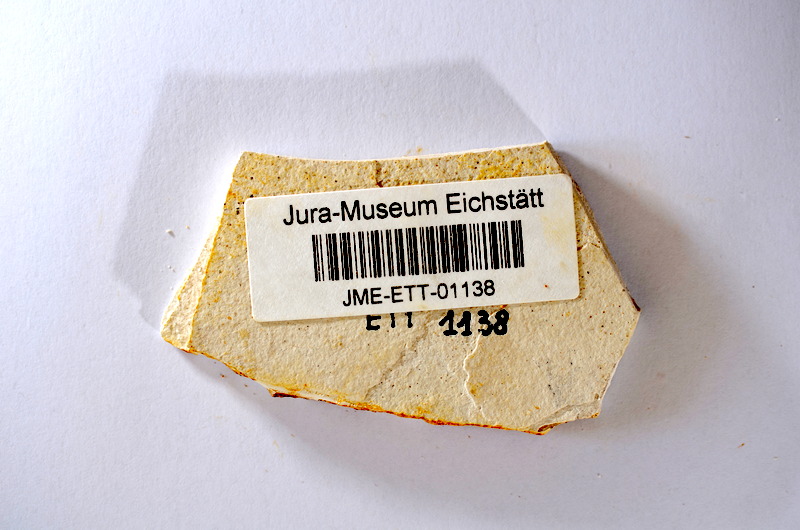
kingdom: Animalia
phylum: Chordata
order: Salmoniformes
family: Orthogonikleithridae
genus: Orthogonikleithrus
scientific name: Orthogonikleithrus hoelli
